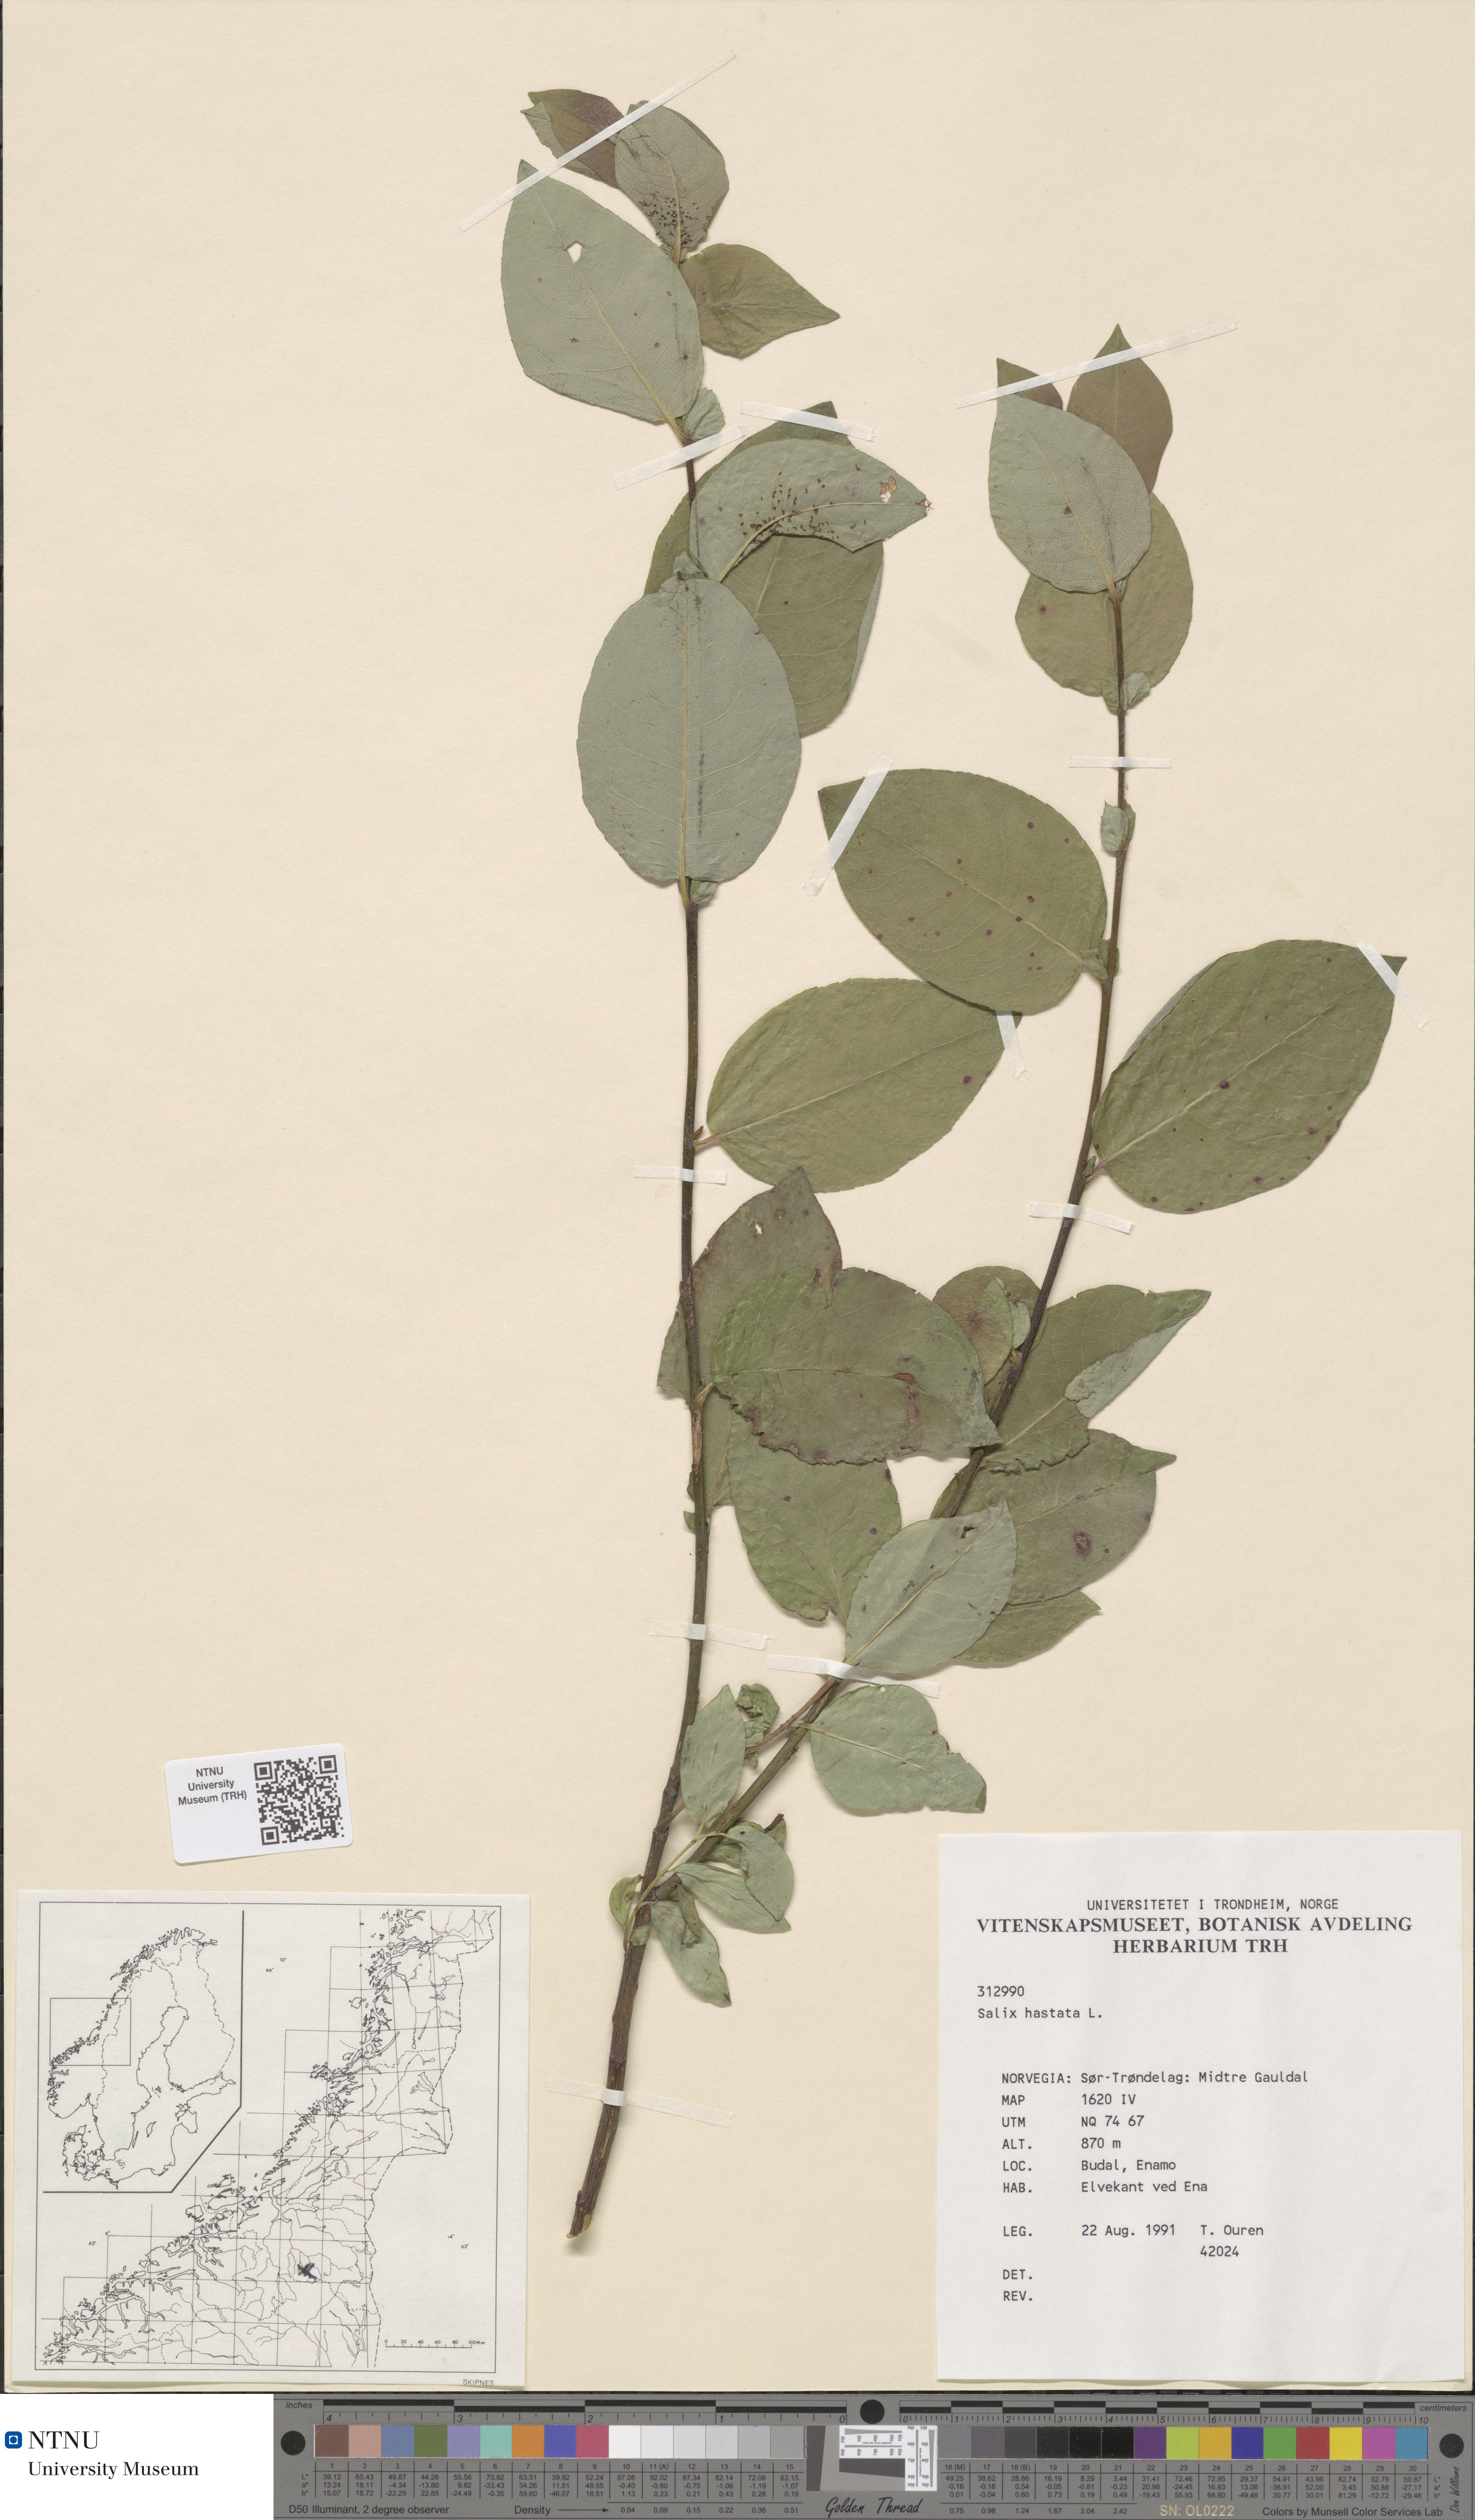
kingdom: Plantae
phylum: Tracheophyta
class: Magnoliopsida
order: Malpighiales
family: Salicaceae
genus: Salix
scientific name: Salix hastata
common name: Halberd willow
